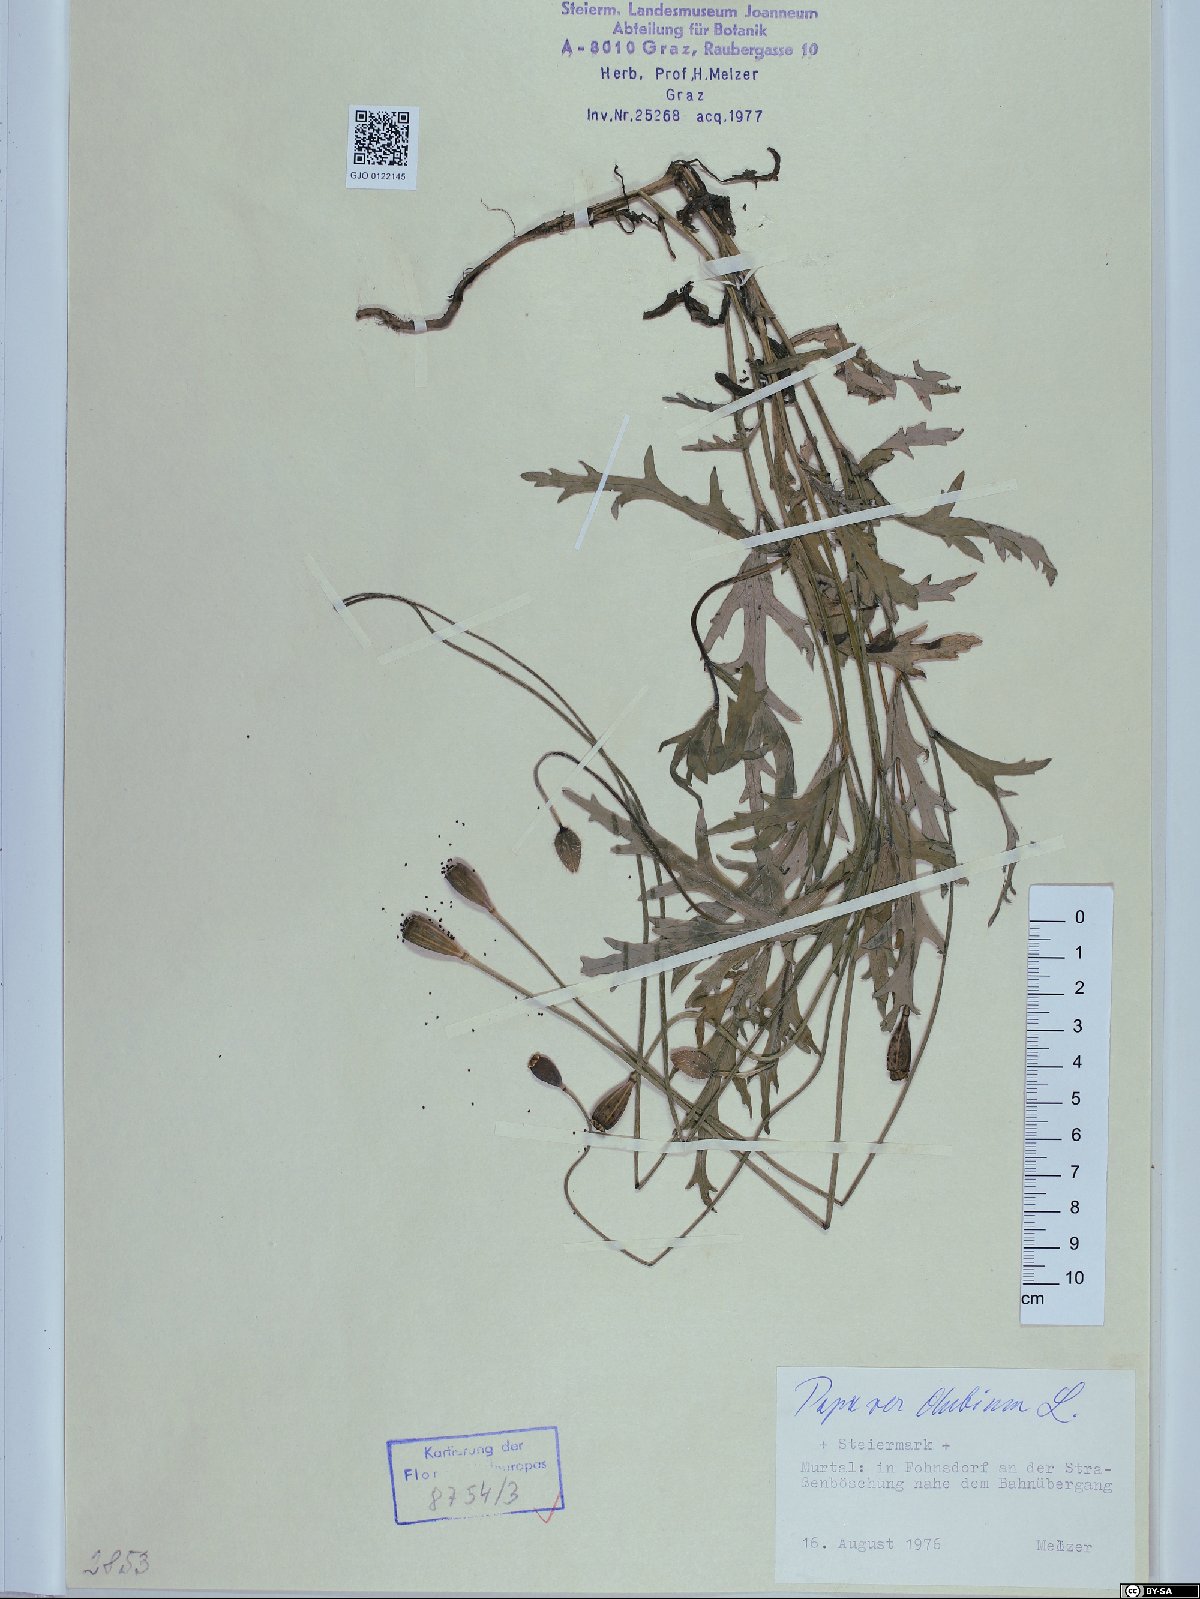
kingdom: Plantae
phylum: Tracheophyta
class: Magnoliopsida
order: Ranunculales
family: Papaveraceae
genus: Papaver
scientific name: Papaver dubium
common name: Long-headed poppy
